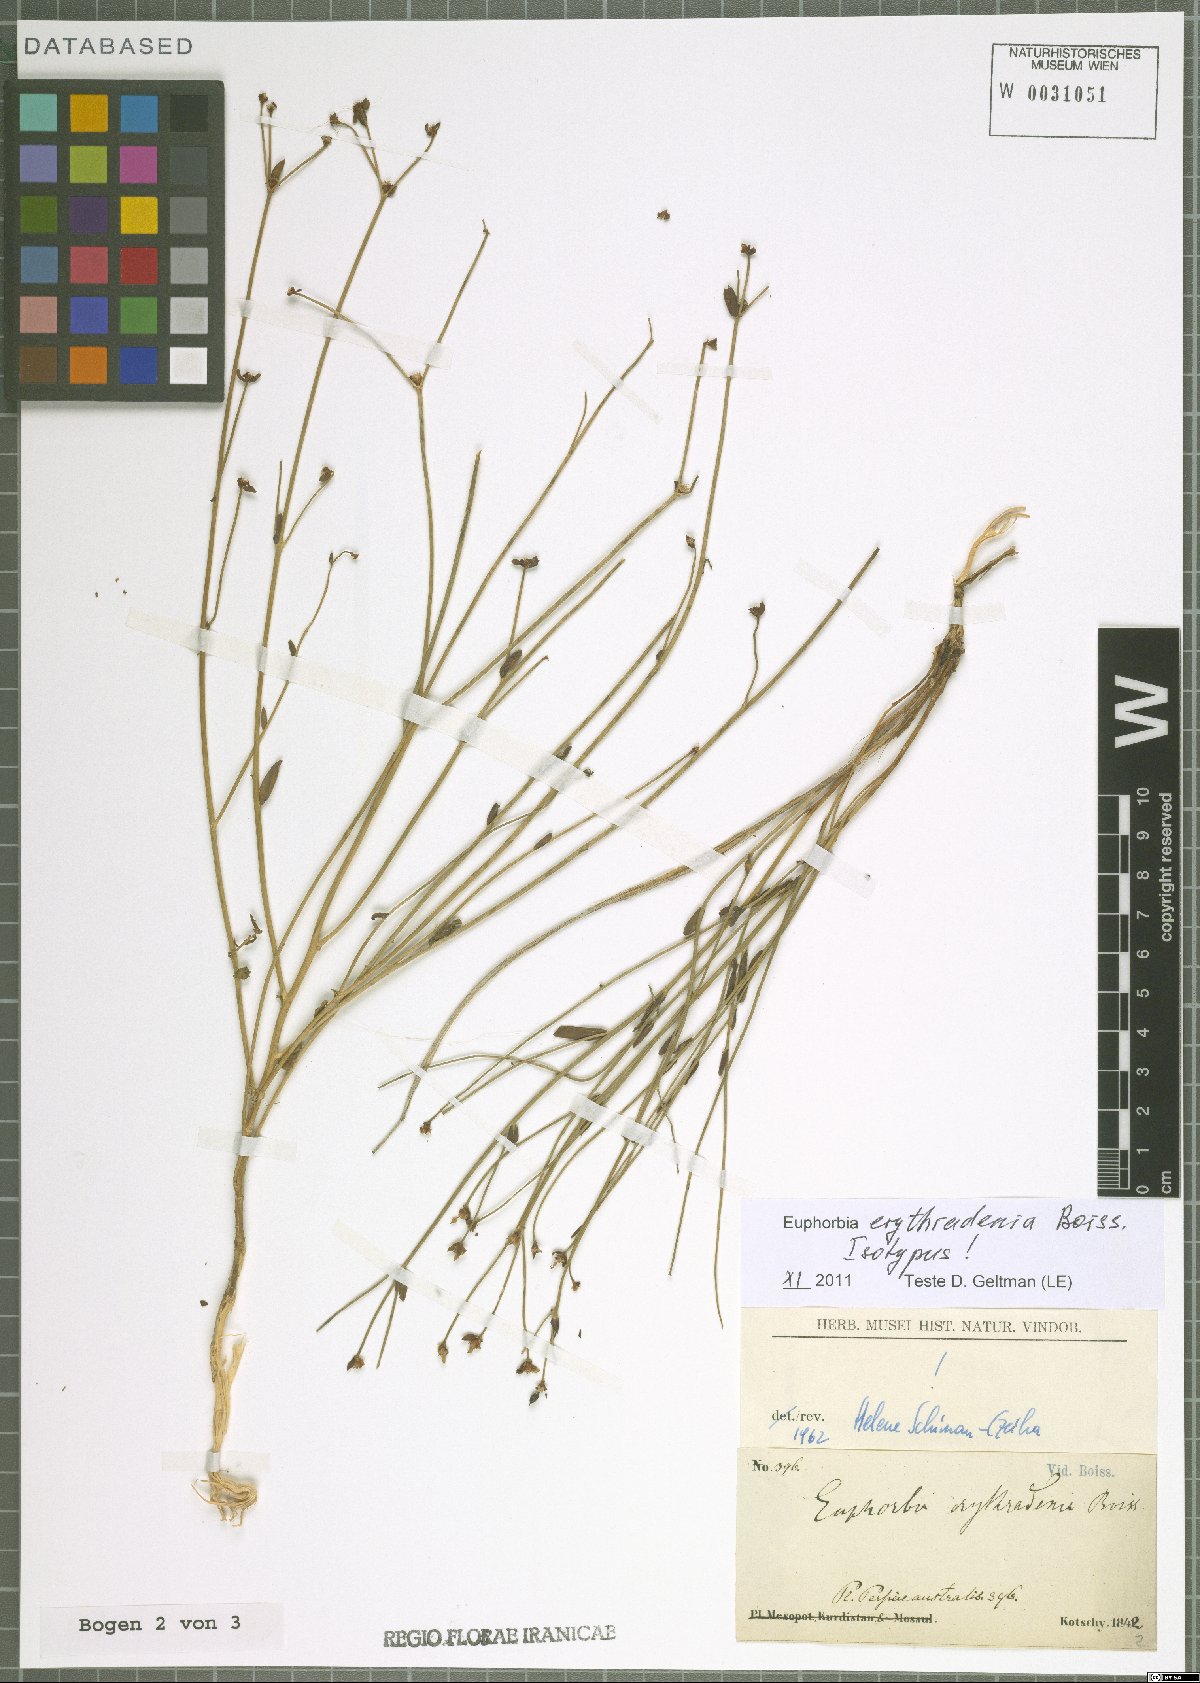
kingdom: Plantae
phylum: Tracheophyta
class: Magnoliopsida
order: Malpighiales
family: Euphorbiaceae
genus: Euphorbia
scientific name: Euphorbia erythradenia
